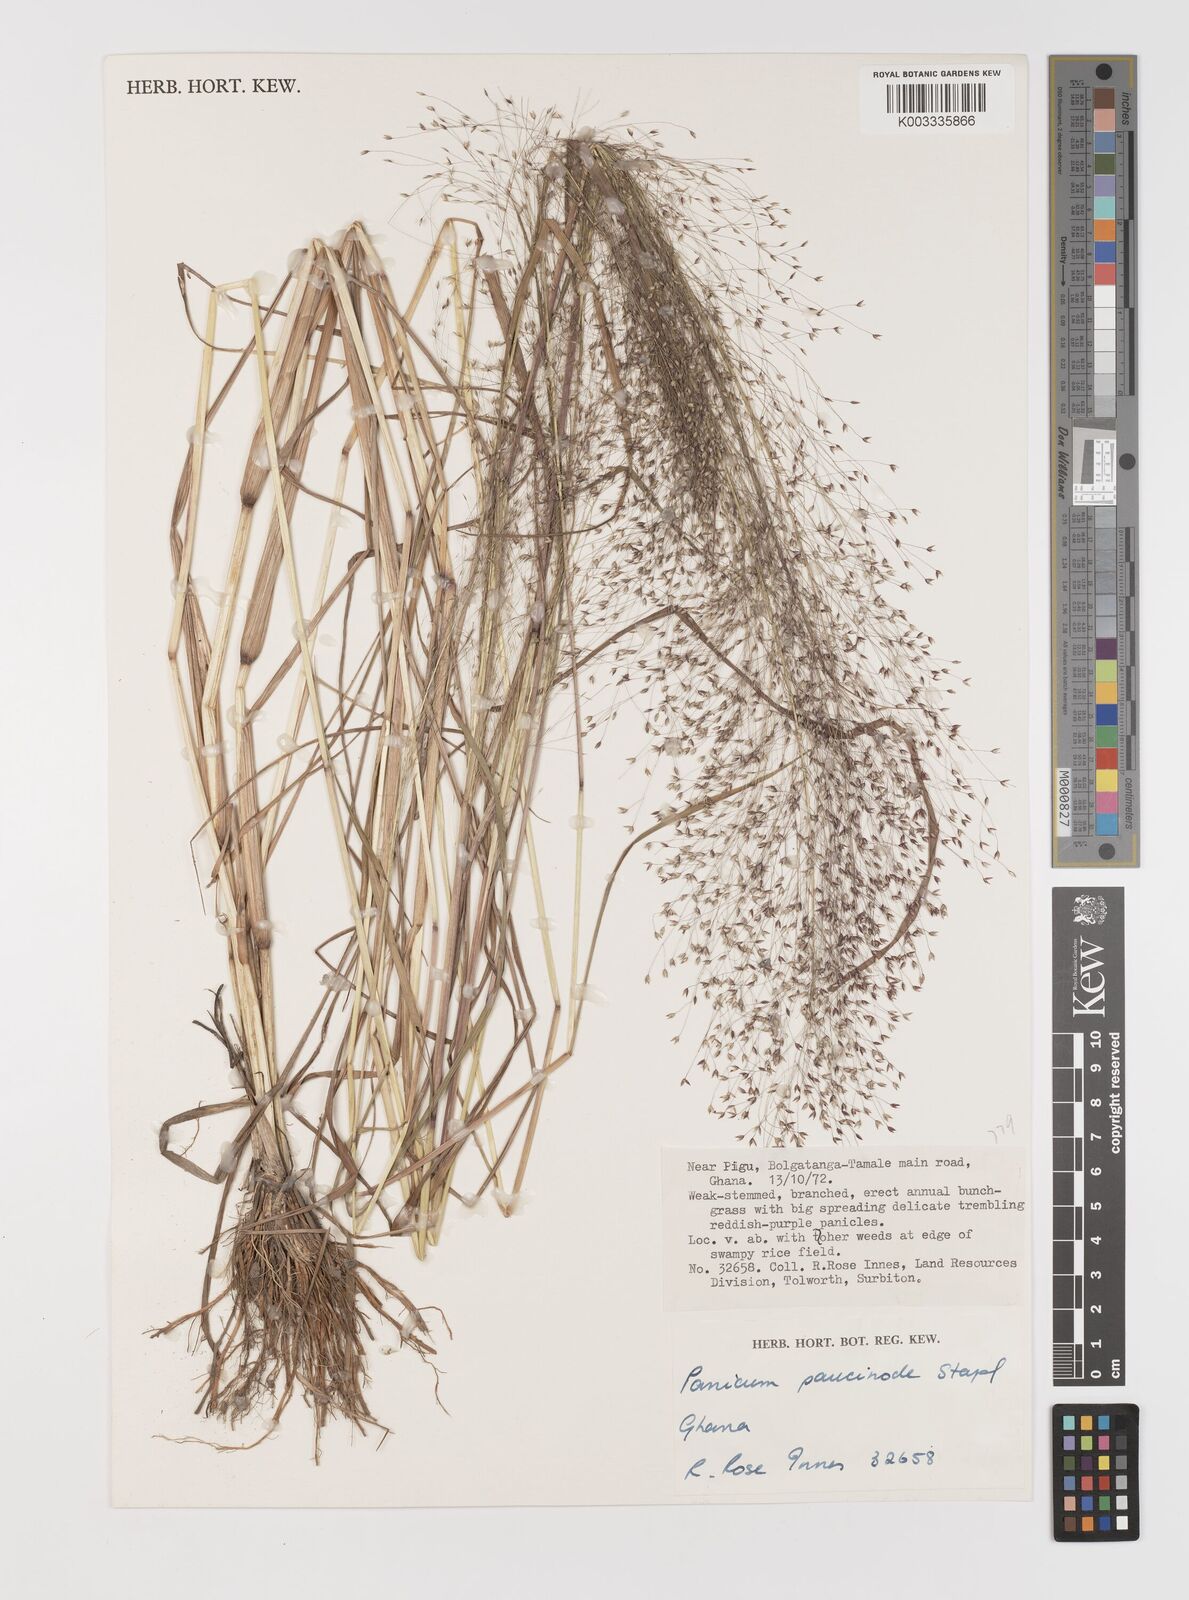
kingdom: Plantae
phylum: Tracheophyta
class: Liliopsida
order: Poales
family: Poaceae
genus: Panicum
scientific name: Panicum paucinode
